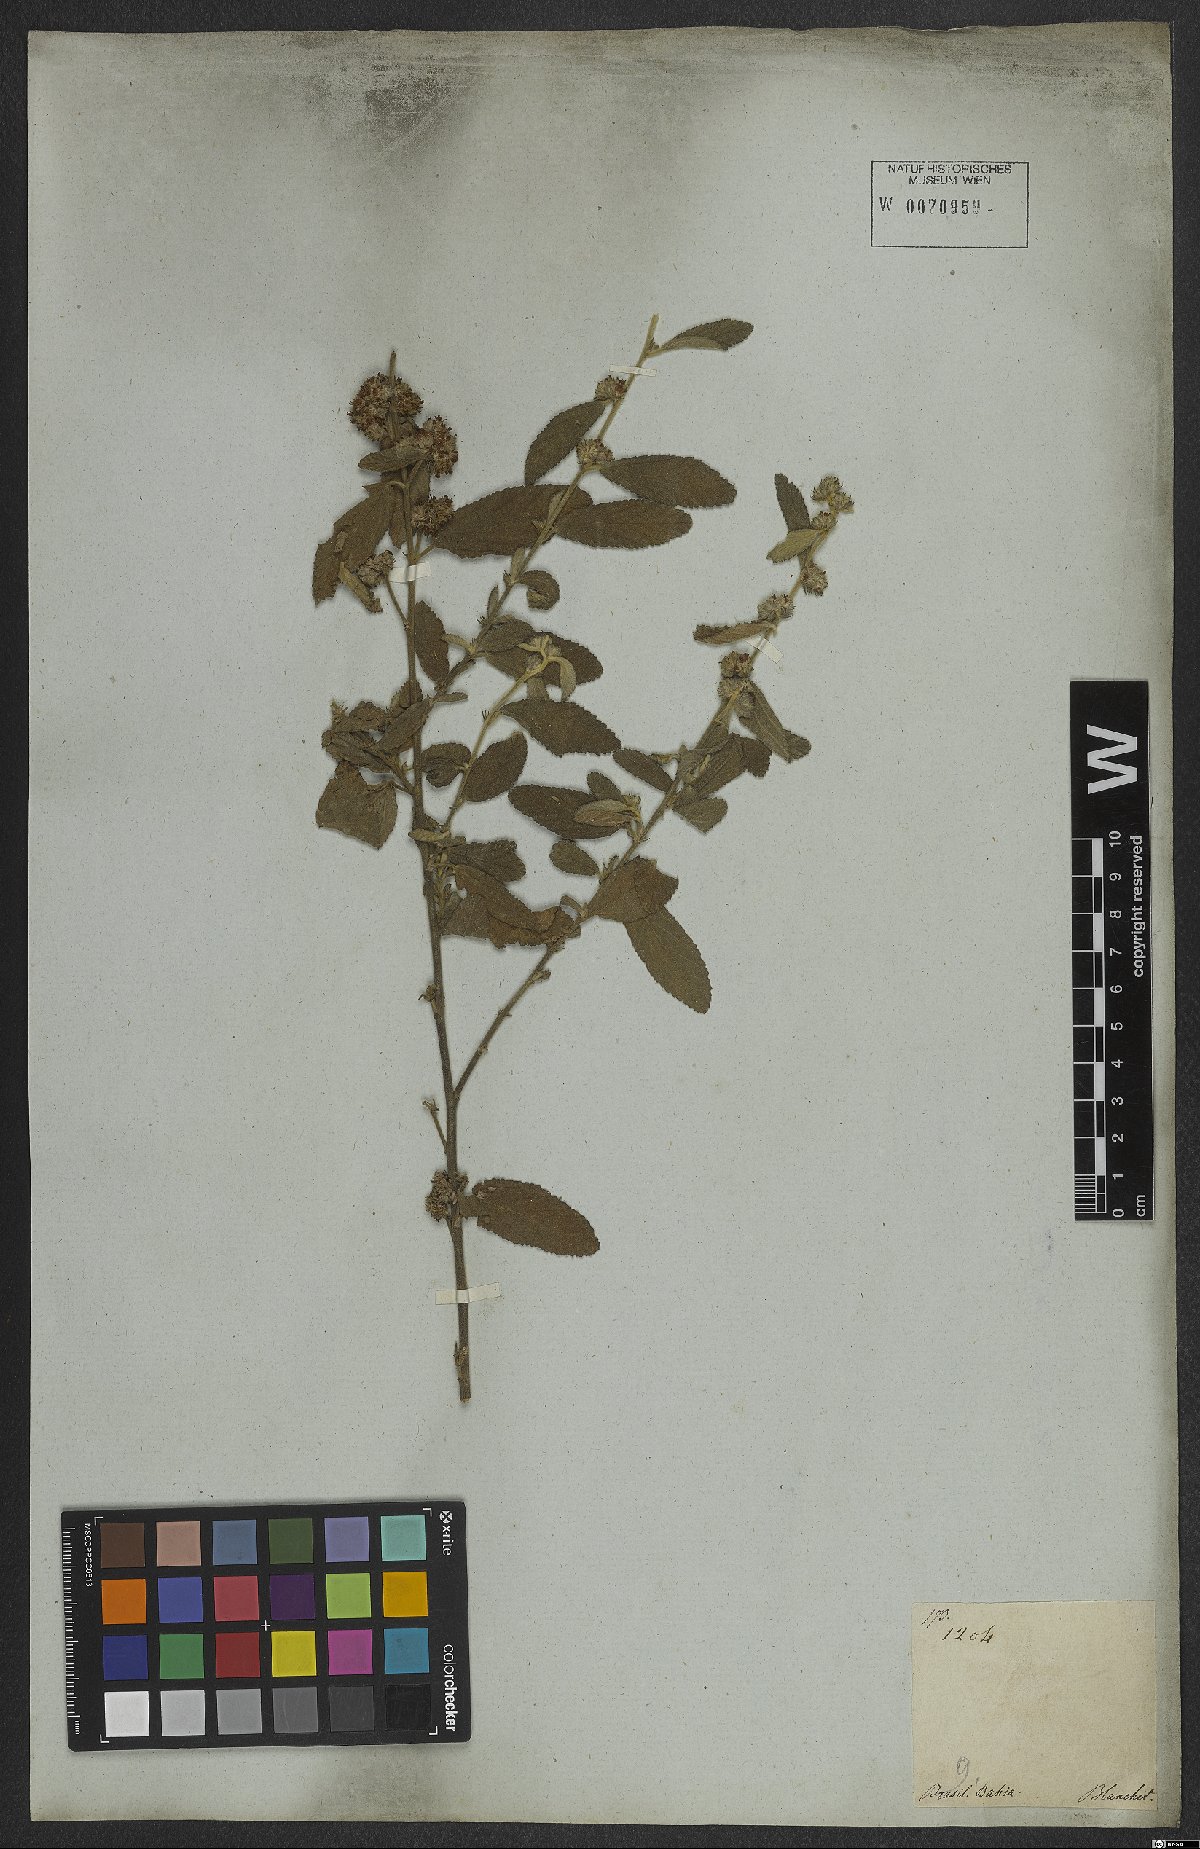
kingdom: Plantae
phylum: Tracheophyta
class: Magnoliopsida
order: Malvales
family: Malvaceae
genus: Waltheria
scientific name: Waltheria indica
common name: Leather-coat
